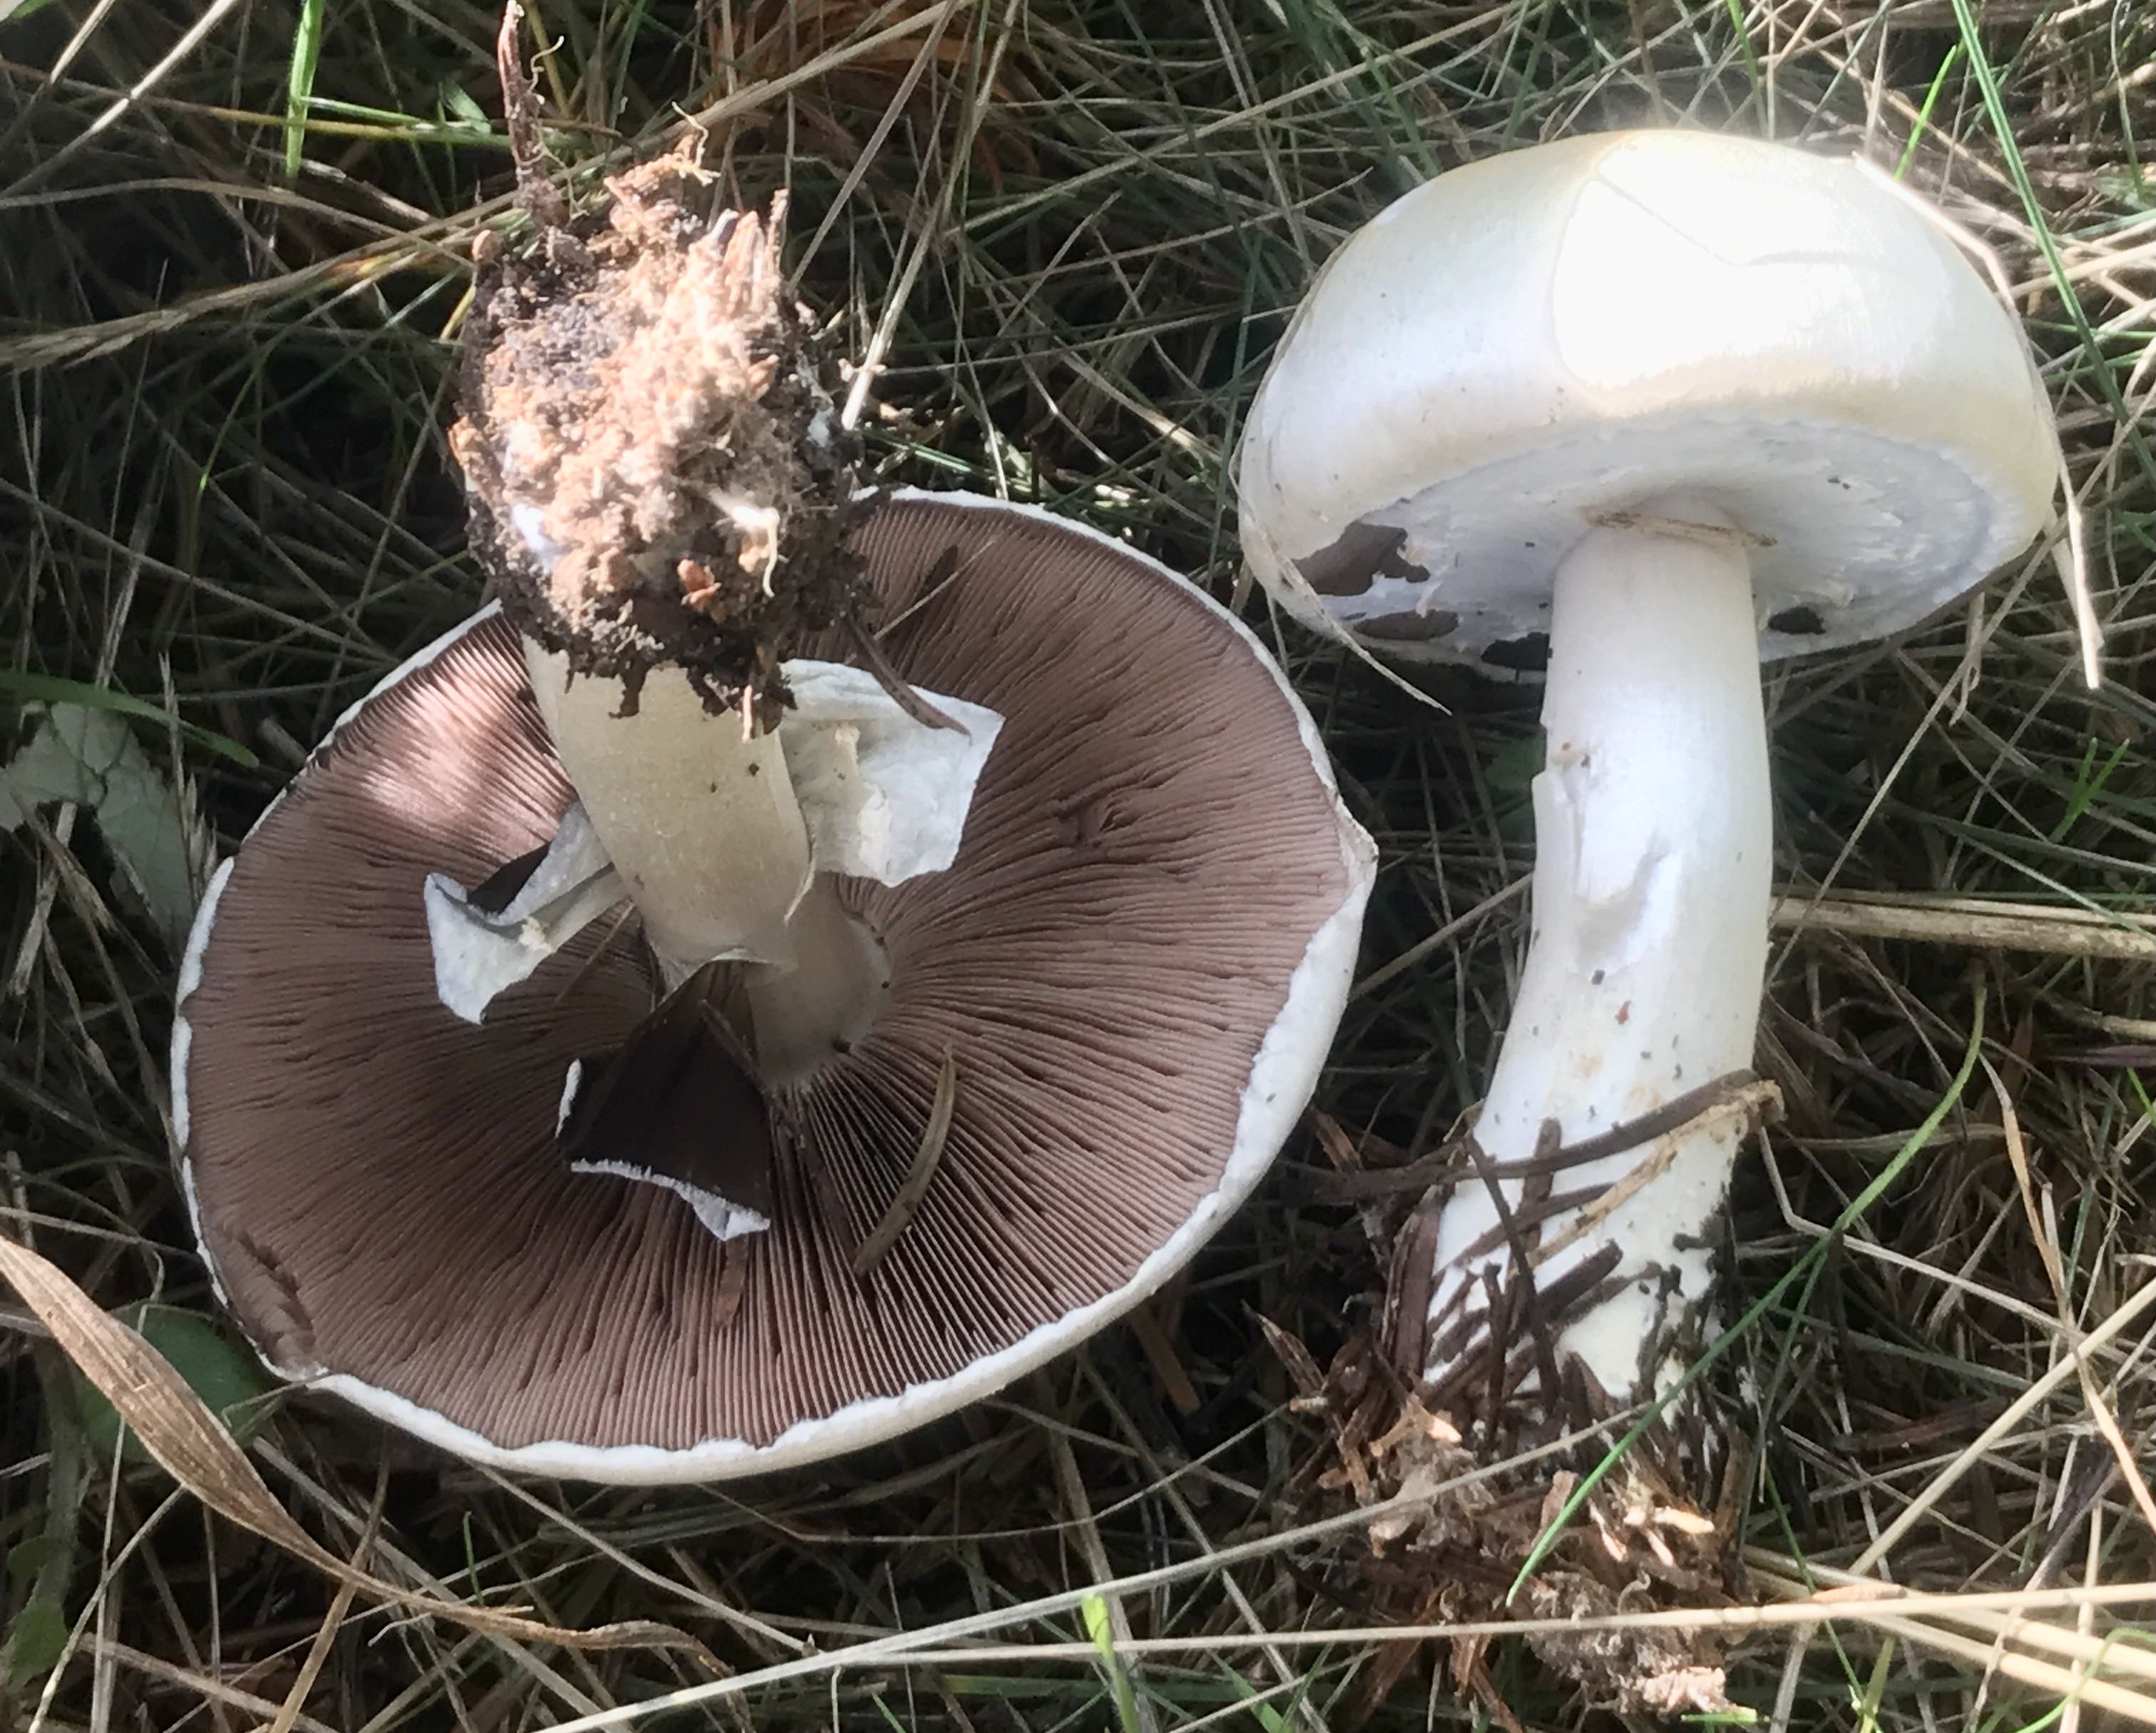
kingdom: Fungi
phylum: Basidiomycota
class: Agaricomycetes
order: Agaricales
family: Agaricaceae
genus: Agaricus
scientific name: Agaricus arvensis
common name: ager-champignon
